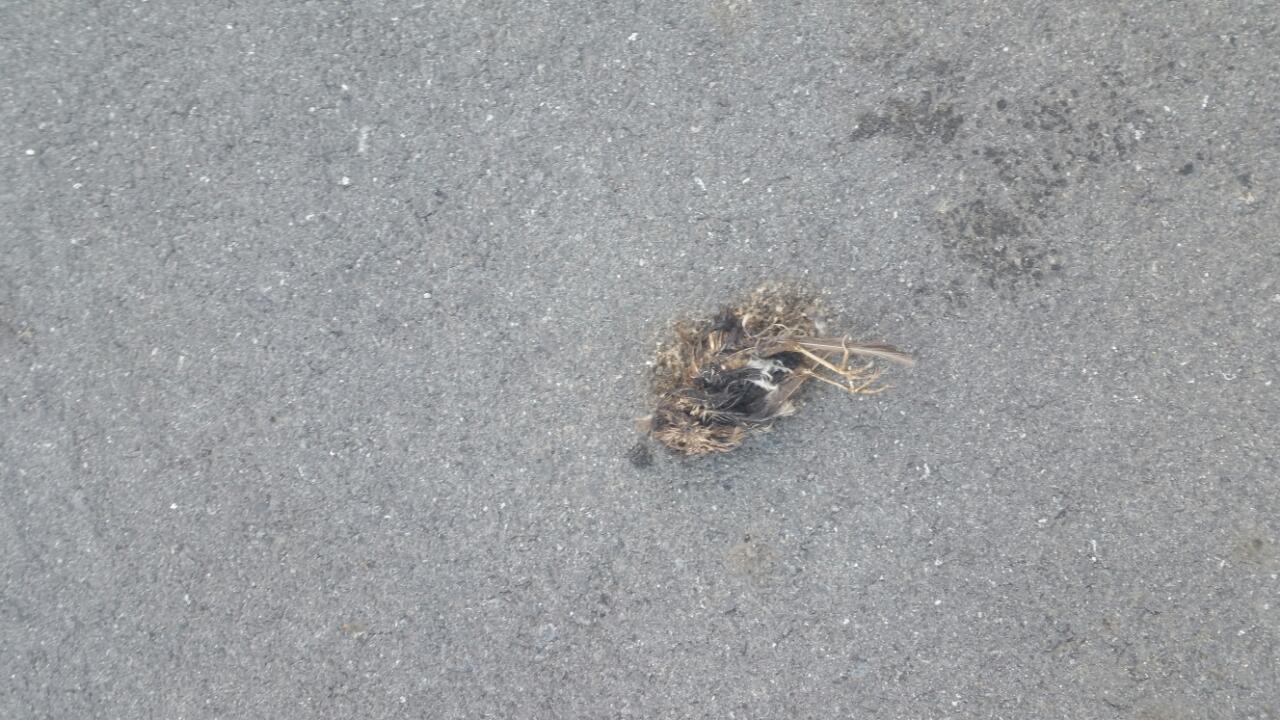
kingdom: Animalia
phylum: Chordata
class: Aves
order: Passeriformes
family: Passeriformes
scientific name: Passeriformes
